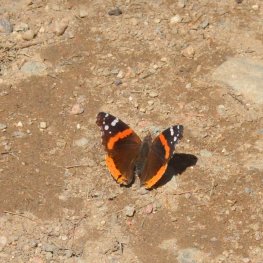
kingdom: Animalia
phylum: Arthropoda
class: Insecta
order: Lepidoptera
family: Nymphalidae
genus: Vanessa
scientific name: Vanessa atalanta
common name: Red Admiral
